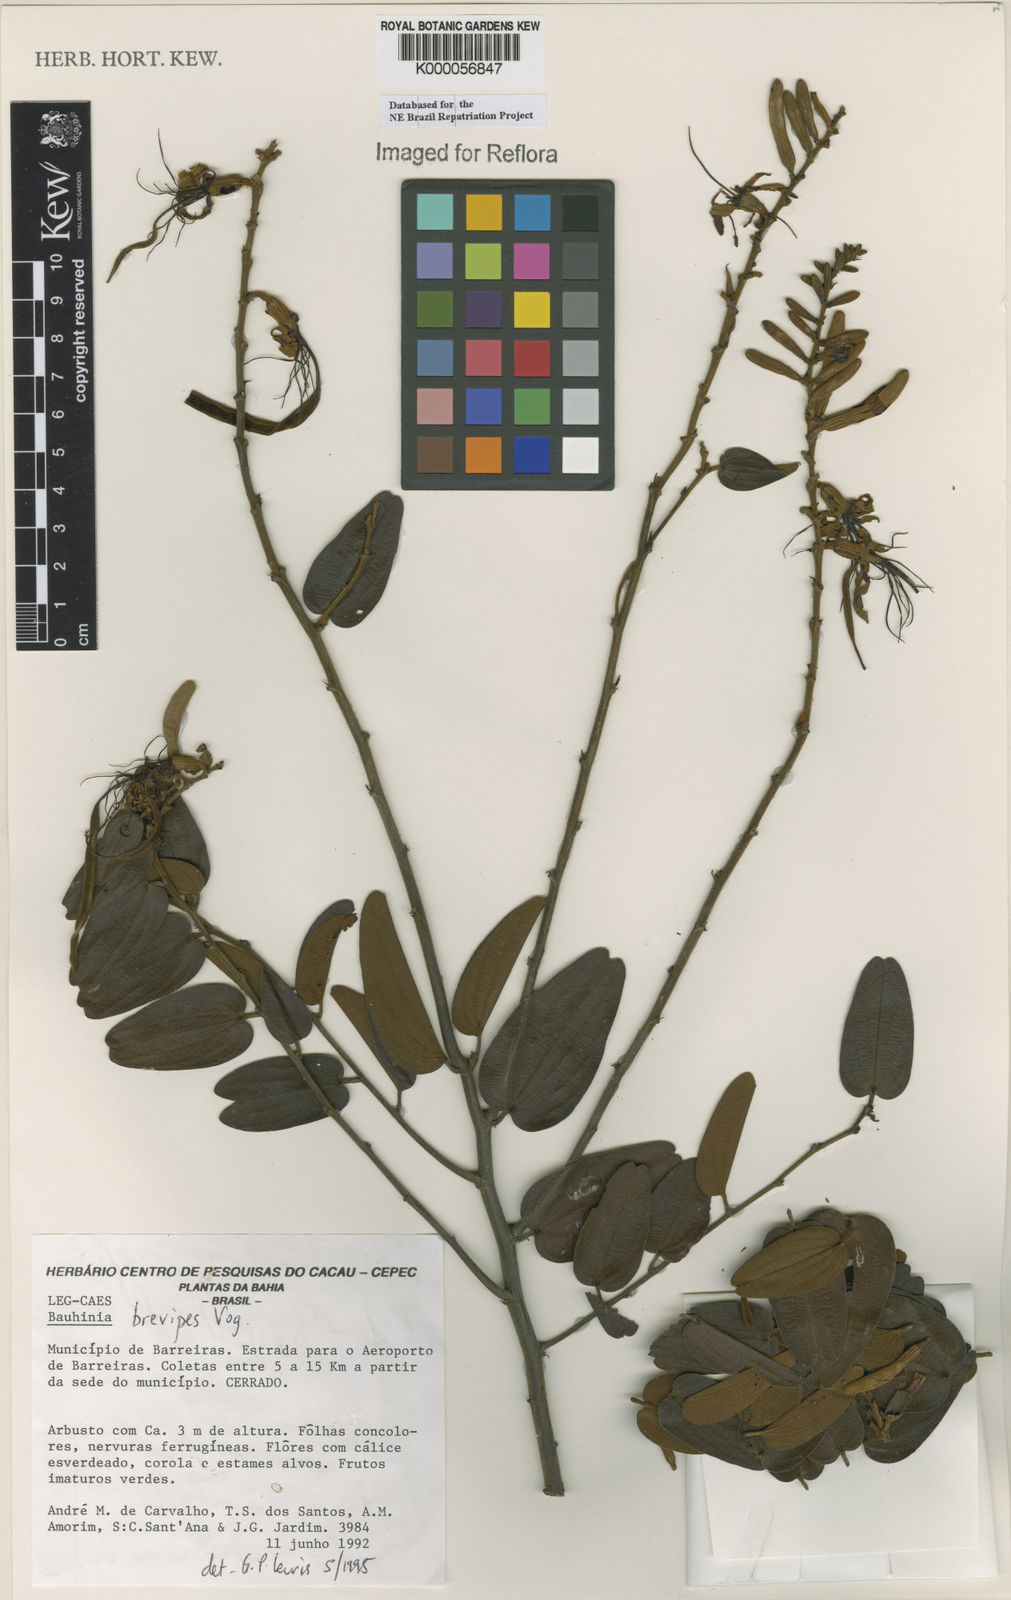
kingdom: Plantae
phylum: Tracheophyta
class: Magnoliopsida
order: Fabales
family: Fabaceae
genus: Bauhinia
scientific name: Bauhinia brevipes
